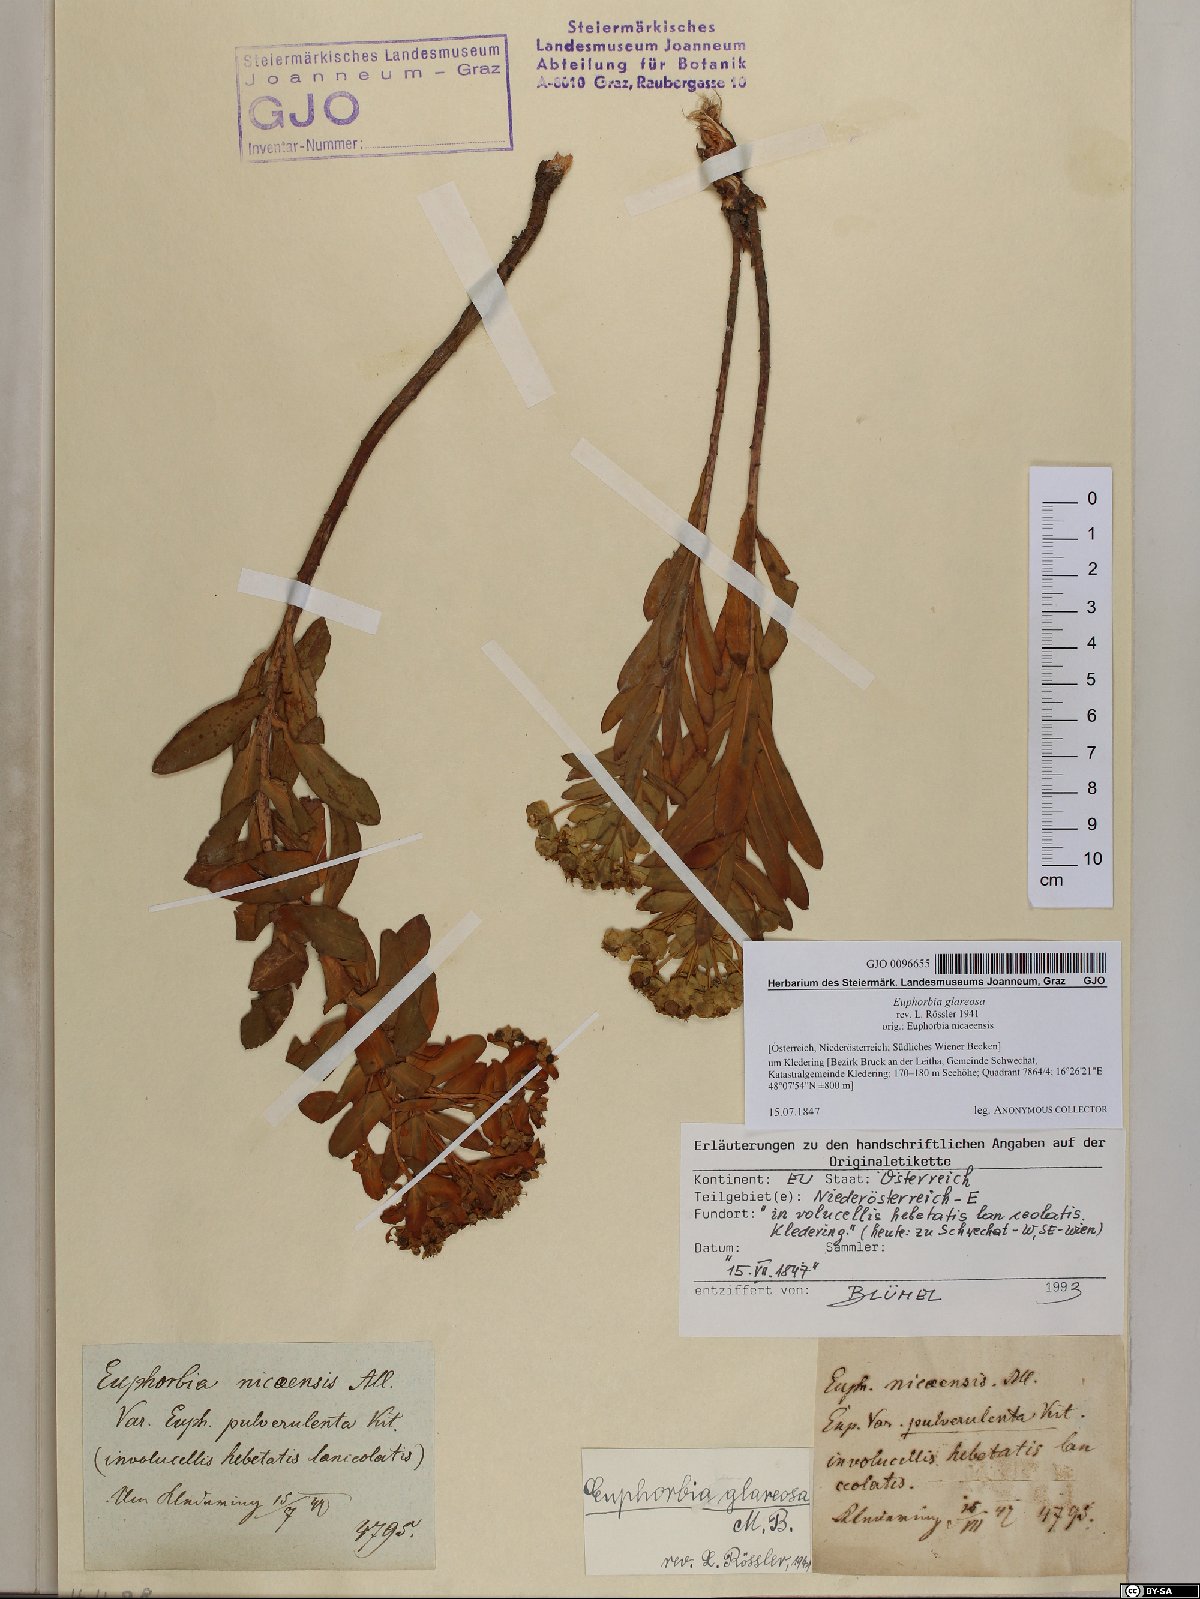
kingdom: Plantae
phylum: Tracheophyta
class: Magnoliopsida
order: Malpighiales
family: Euphorbiaceae
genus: Euphorbia
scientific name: Euphorbia glareosa
